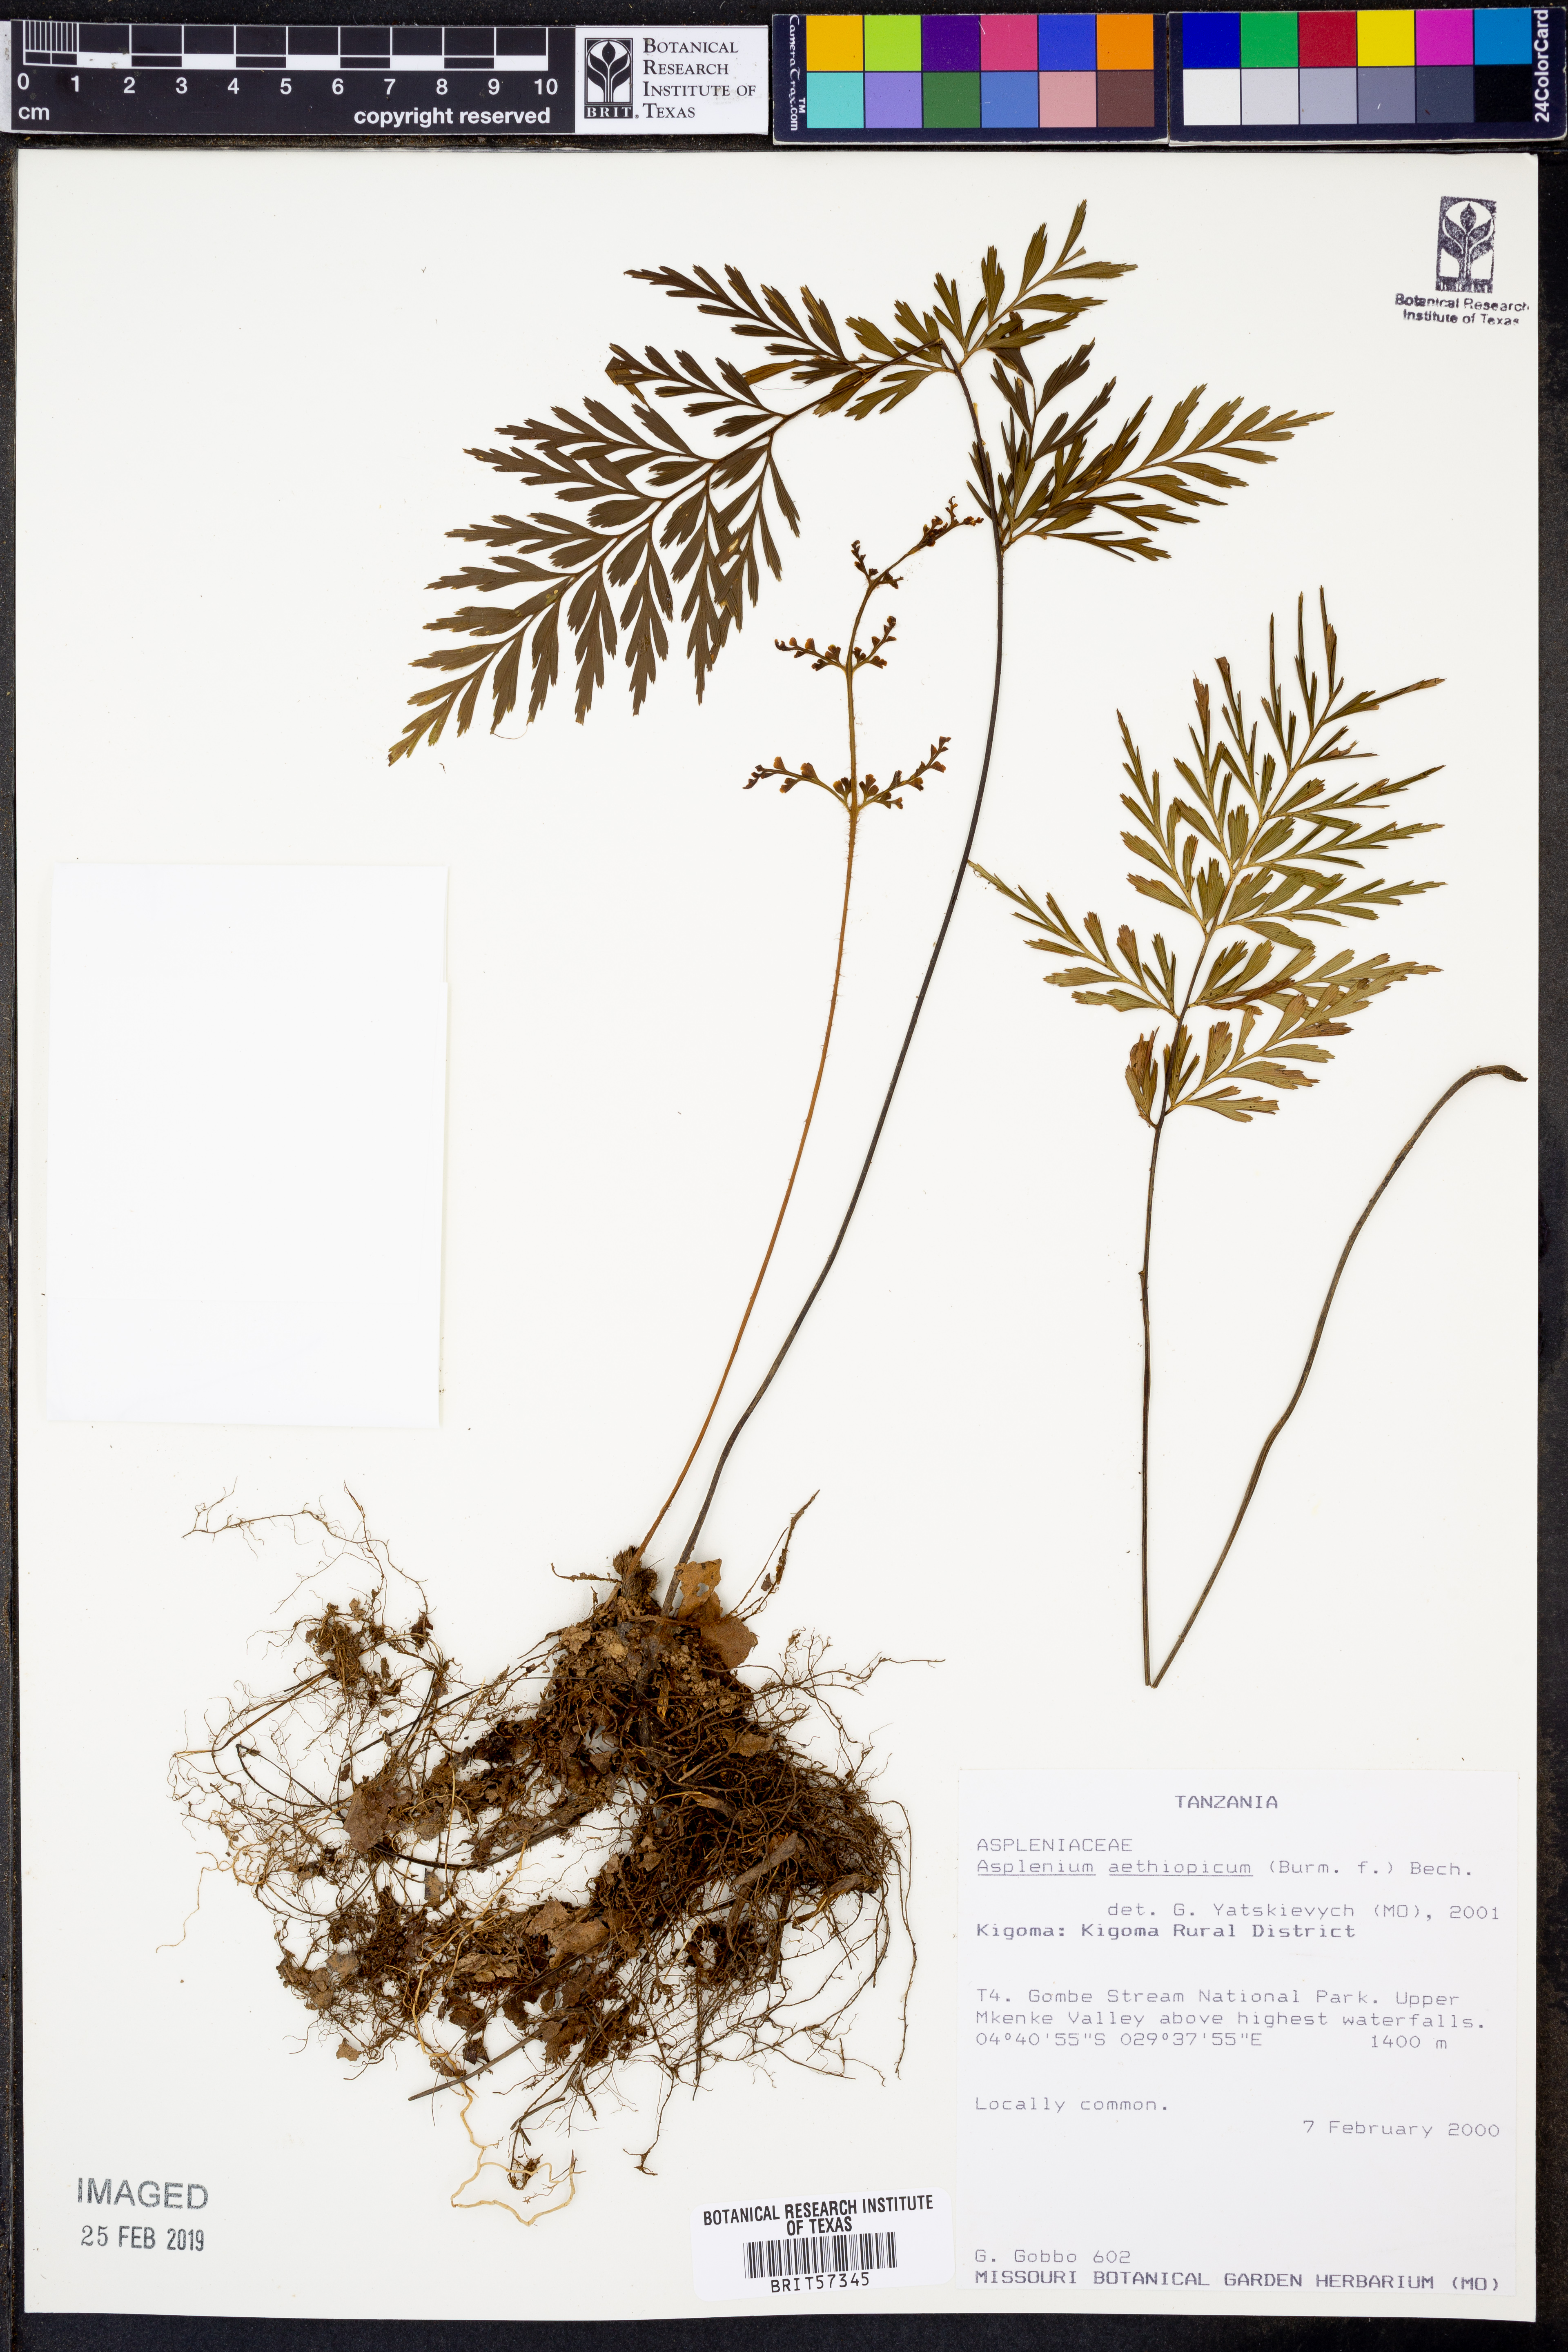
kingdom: Plantae
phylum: Tracheophyta
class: Polypodiopsida
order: Polypodiales
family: Aspleniaceae
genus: Asplenium
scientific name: Asplenium aethiopicum
